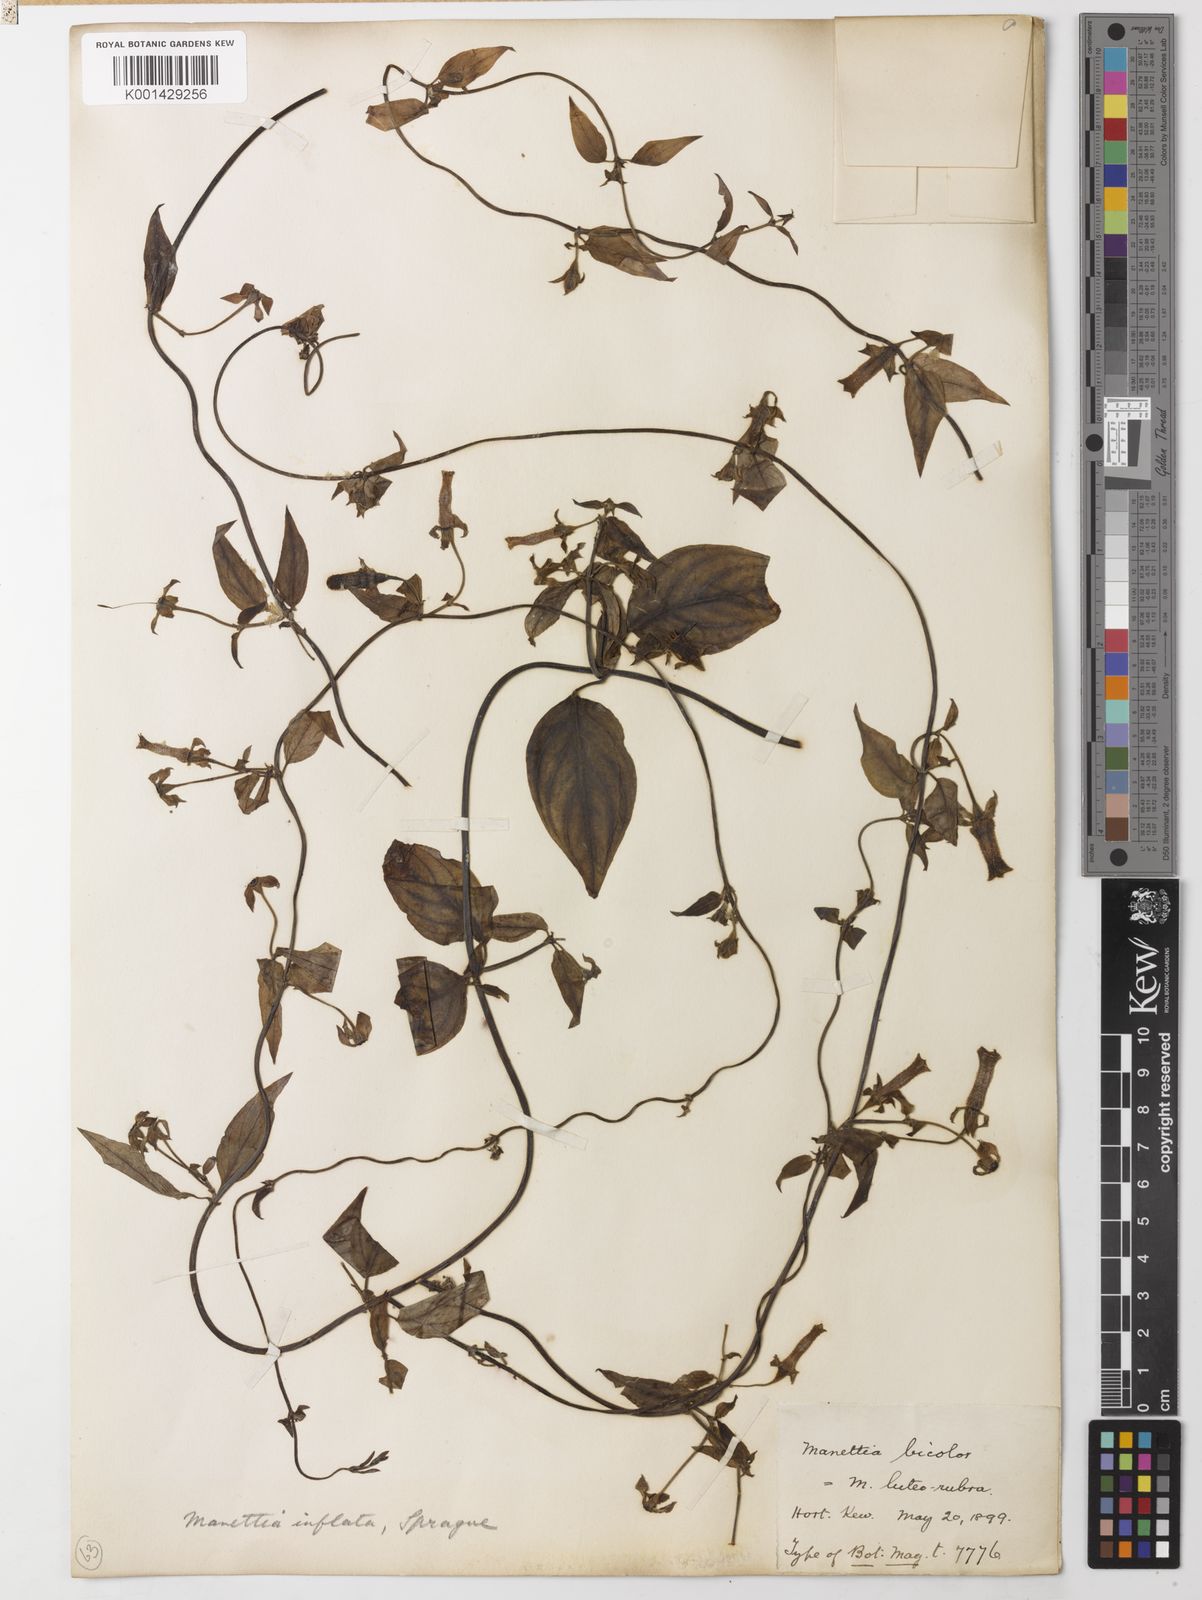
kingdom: Plantae
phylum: Tracheophyta
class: Magnoliopsida
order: Gentianales
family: Rubiaceae
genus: Manettia
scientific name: Manettia luteorubra
